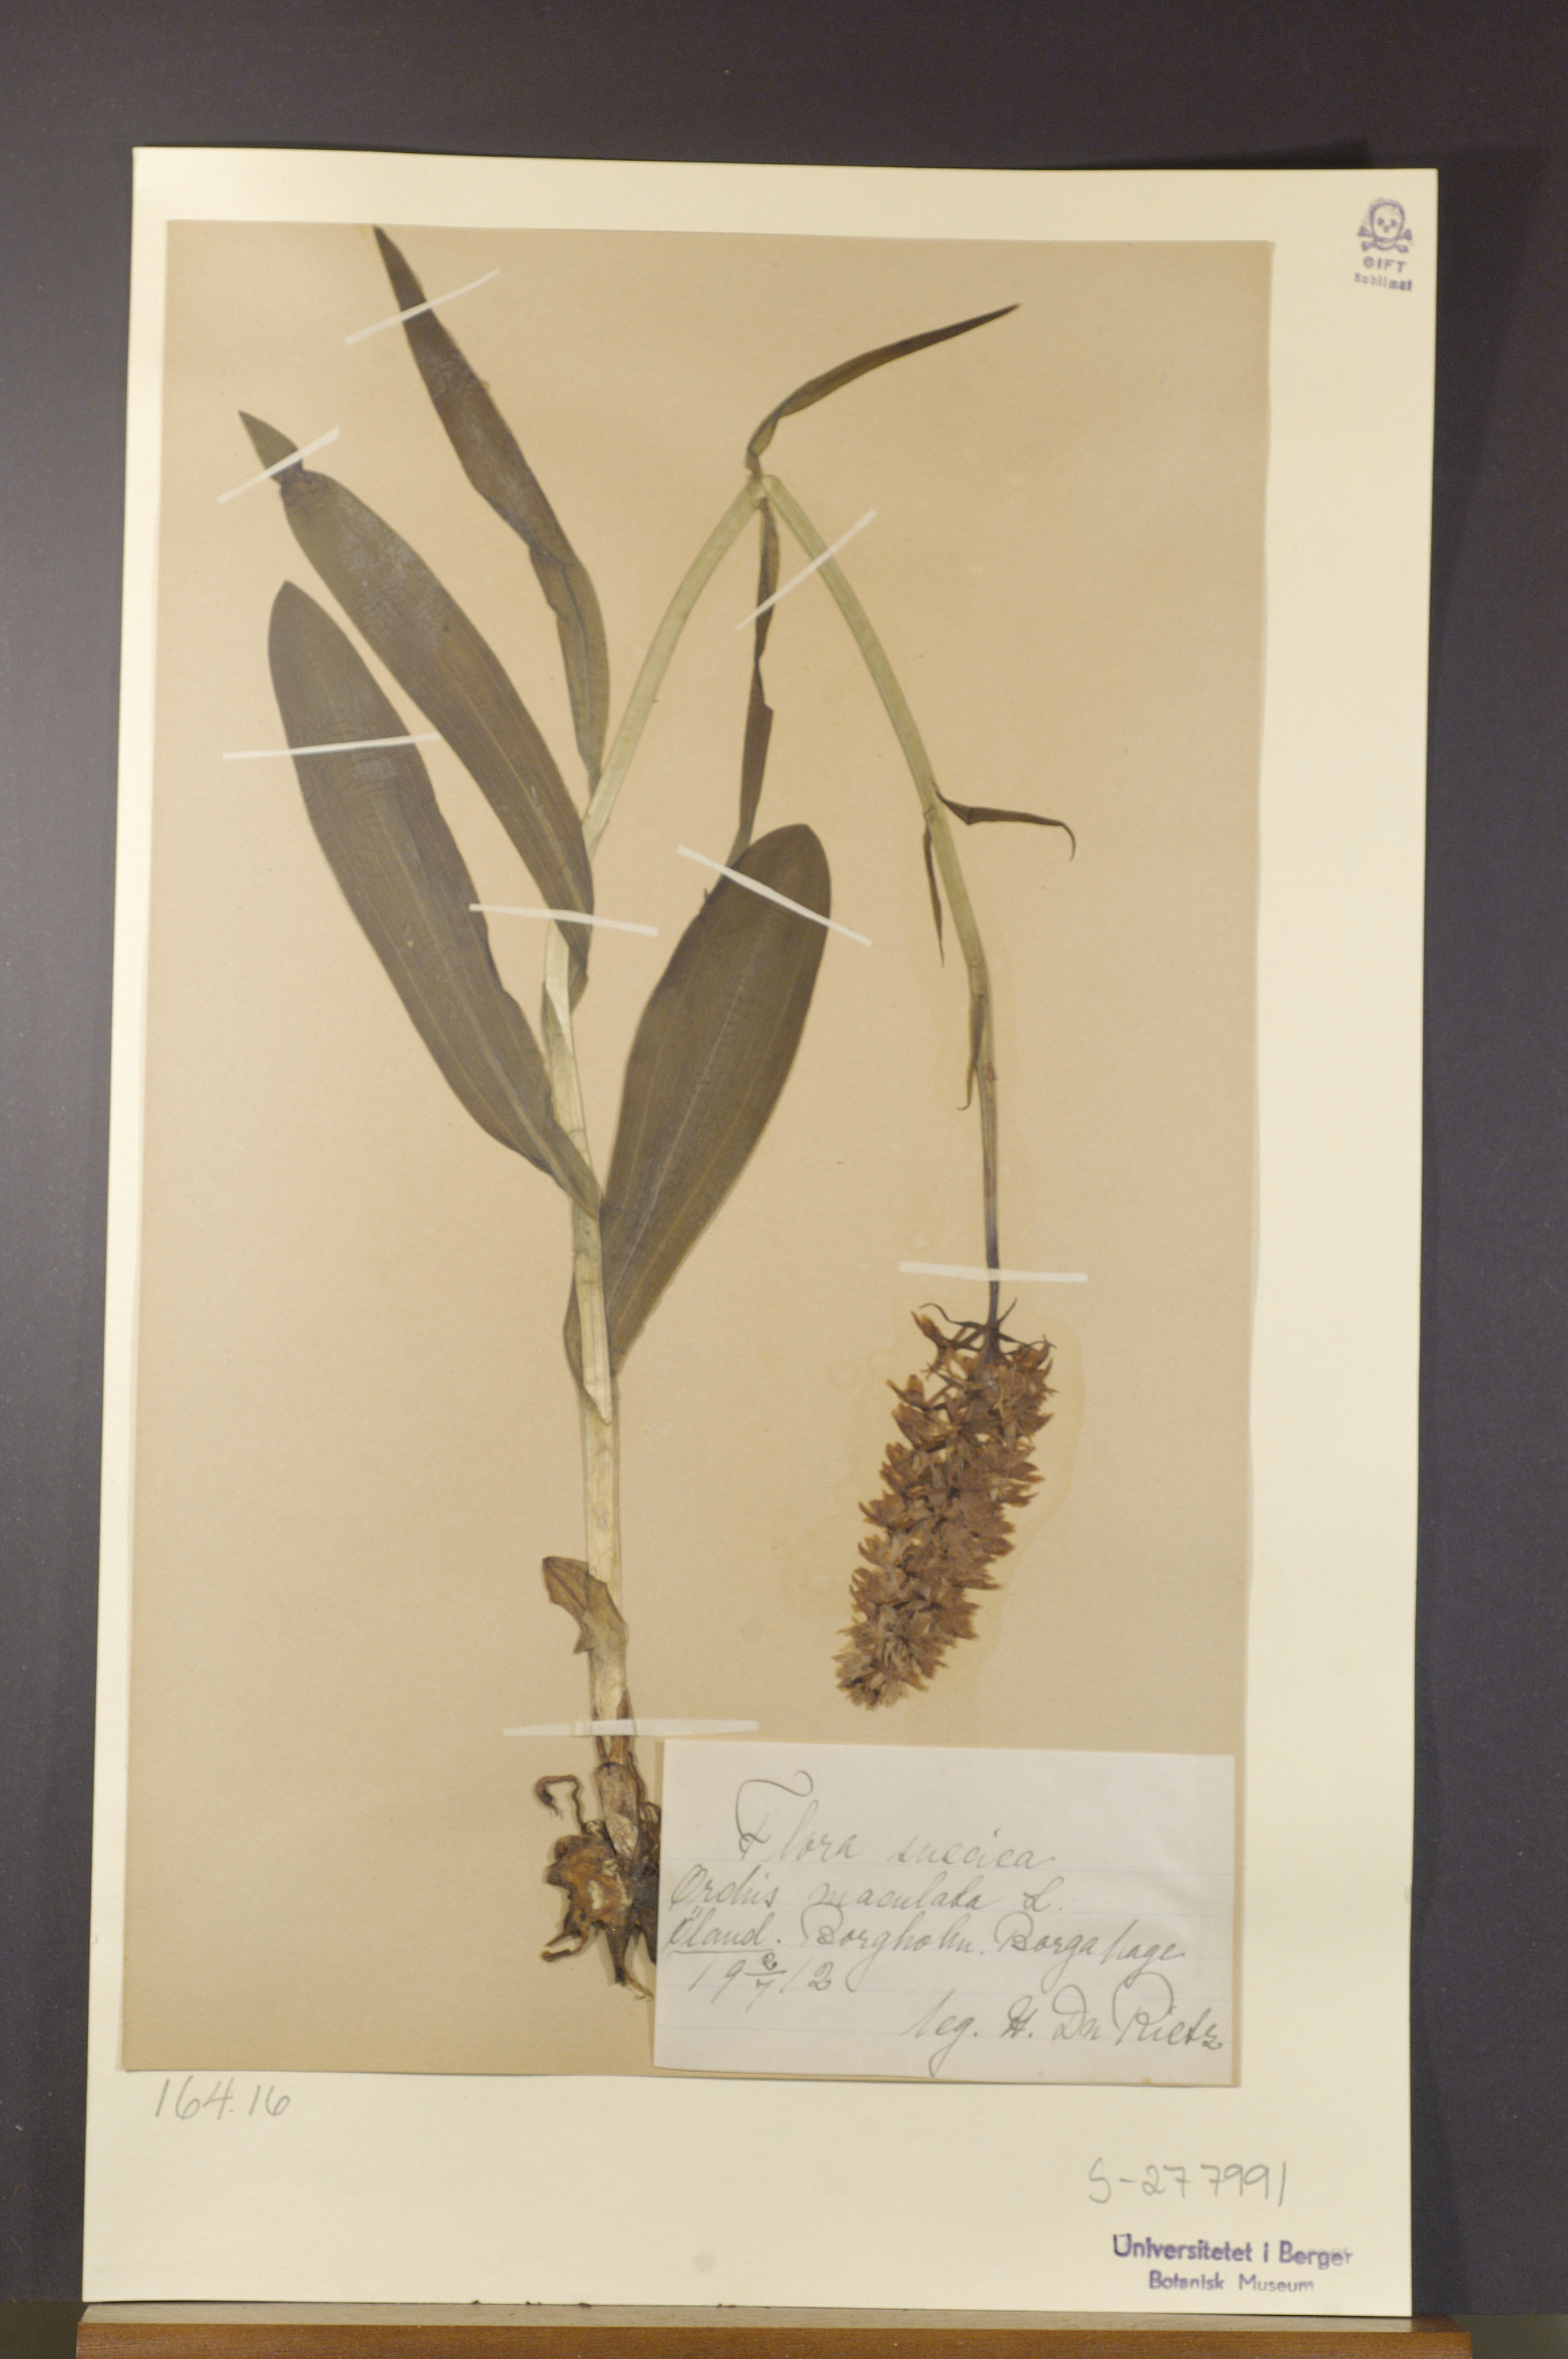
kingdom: Plantae
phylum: Tracheophyta
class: Liliopsida
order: Asparagales
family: Orchidaceae
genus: Dactylorhiza
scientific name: Dactylorhiza maculata
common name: Heath spotted-orchid
